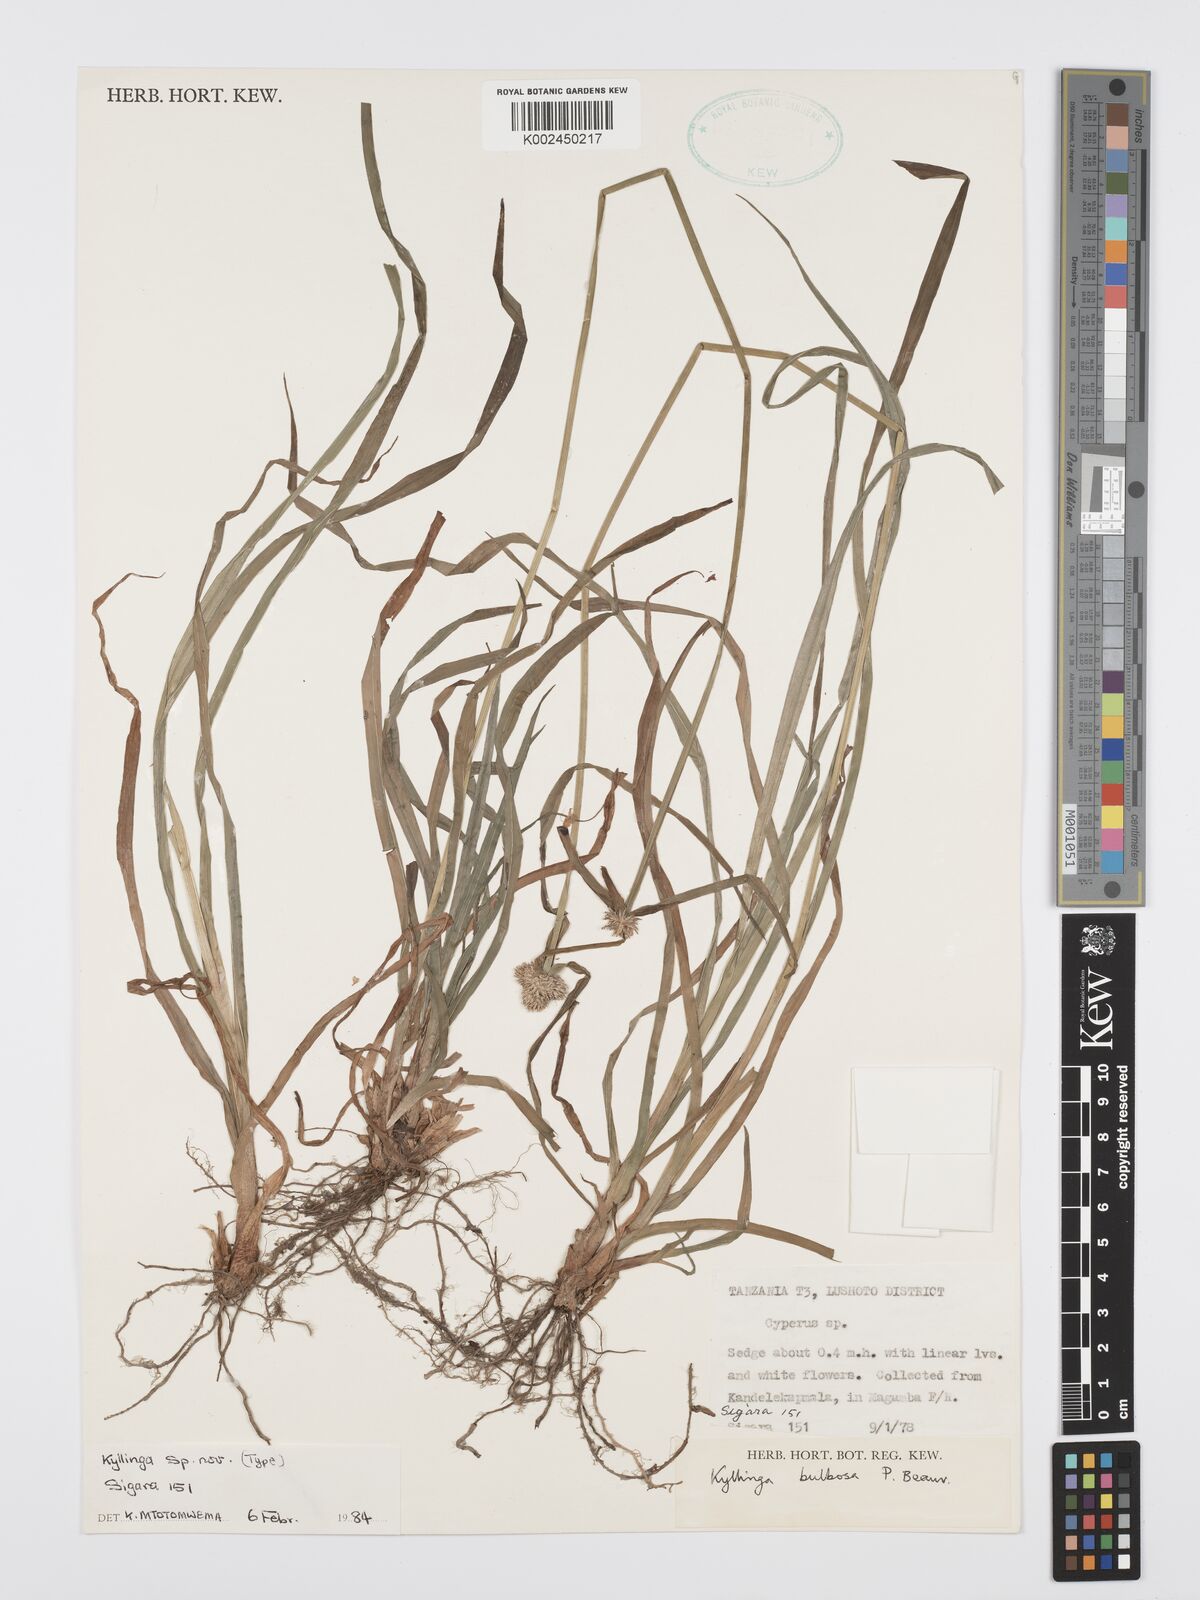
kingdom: Plantae
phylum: Tracheophyta
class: Liliopsida
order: Poales
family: Cyperaceae
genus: Cyperus
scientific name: Cyperus
